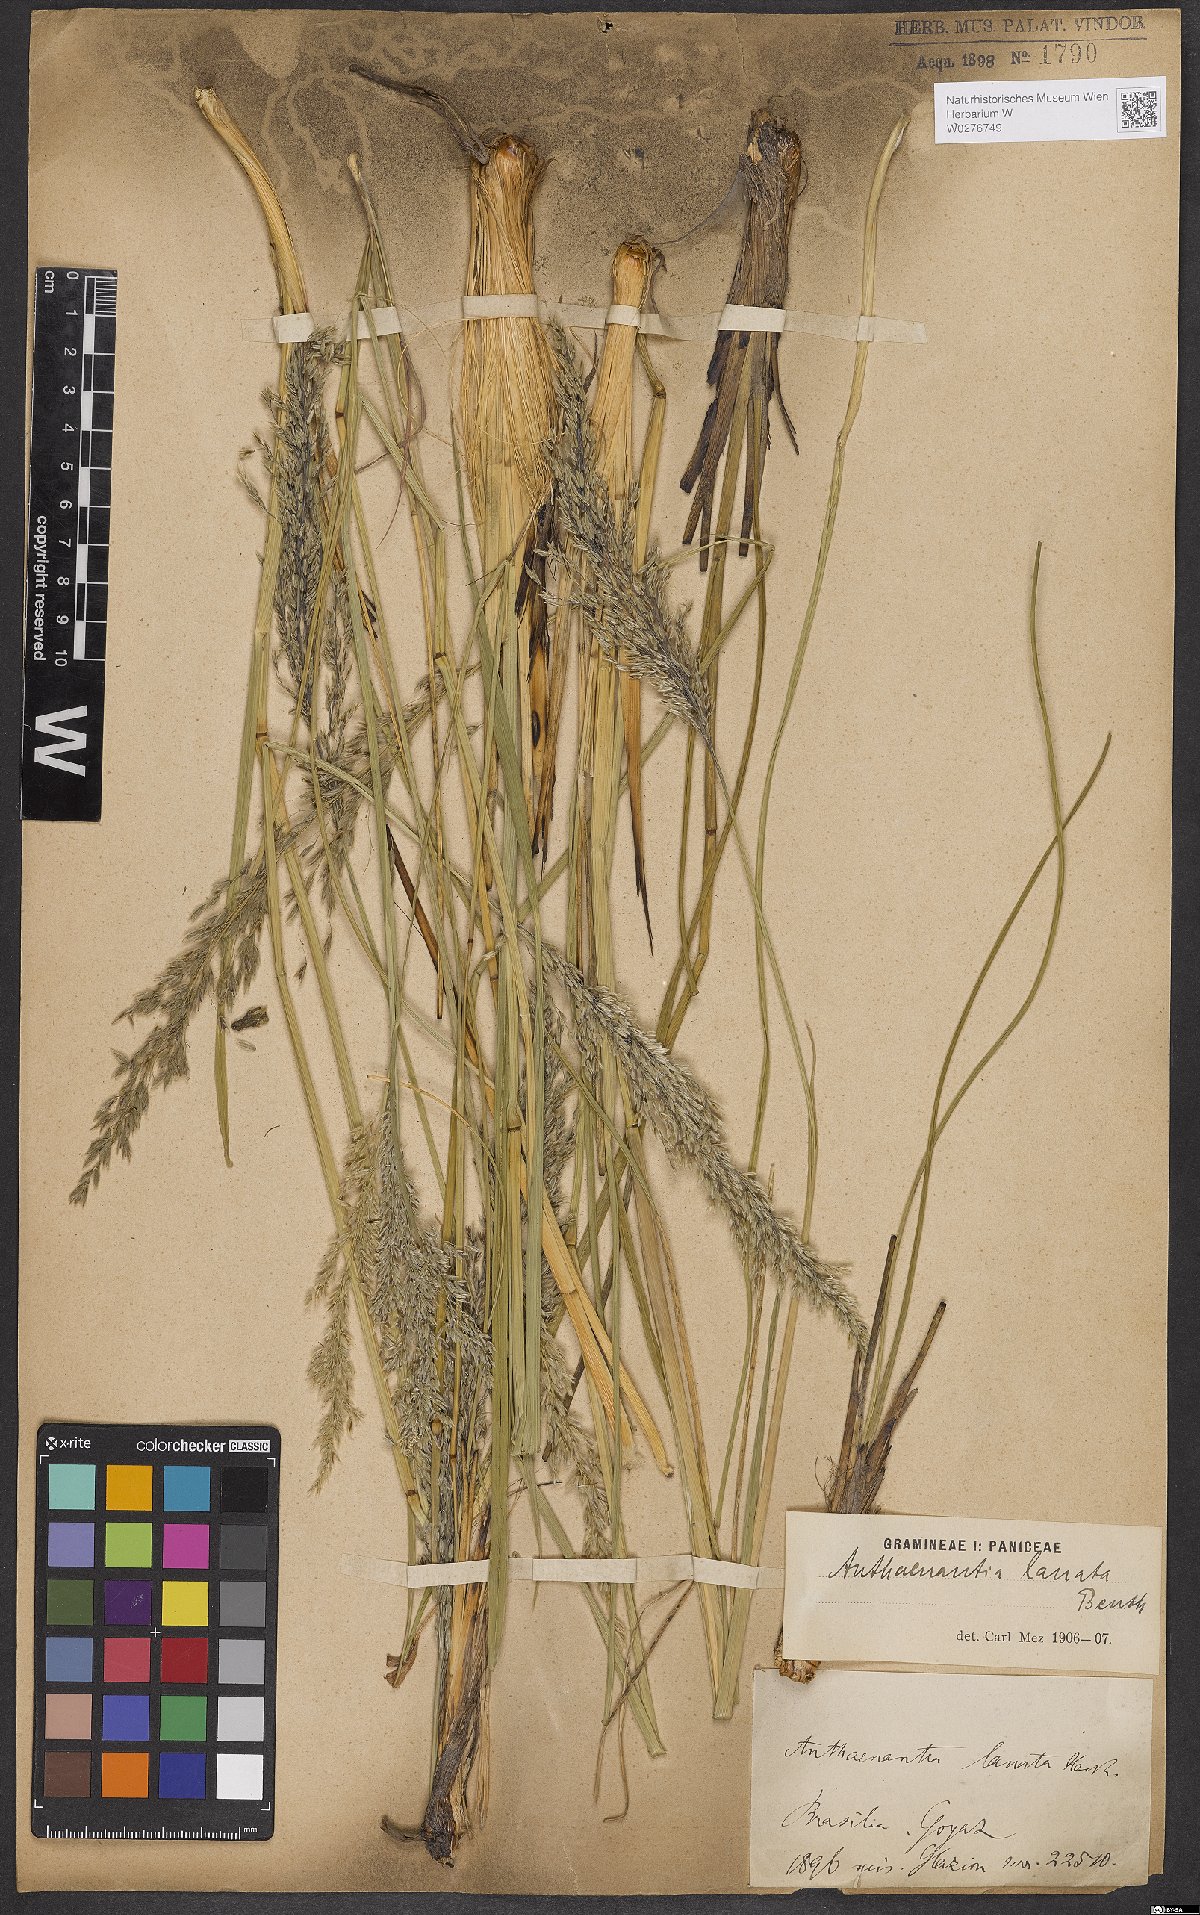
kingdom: Plantae
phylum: Tracheophyta
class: Liliopsida
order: Poales
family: Poaceae
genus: Anthaenantia
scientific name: Anthaenantia lanata
